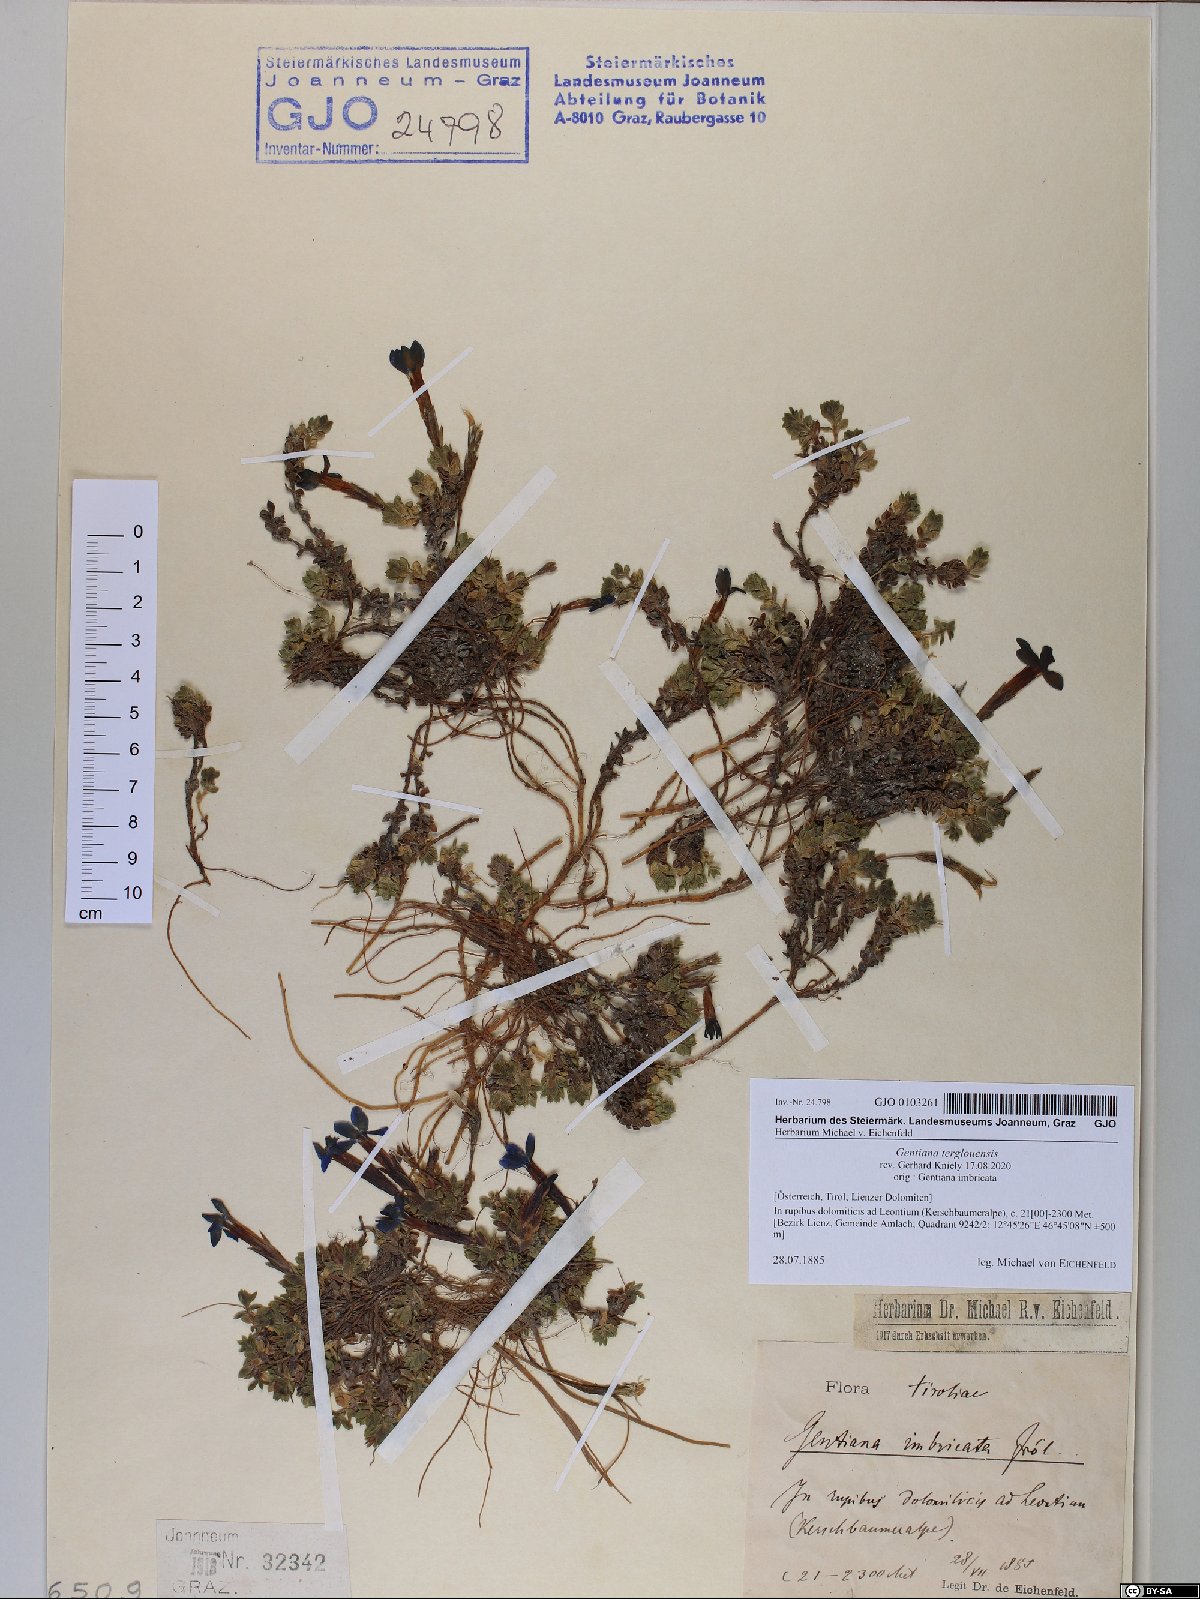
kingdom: Plantae
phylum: Tracheophyta
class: Magnoliopsida
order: Gentianales
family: Gentianaceae
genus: Gentiana
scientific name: Gentiana terglouensis
